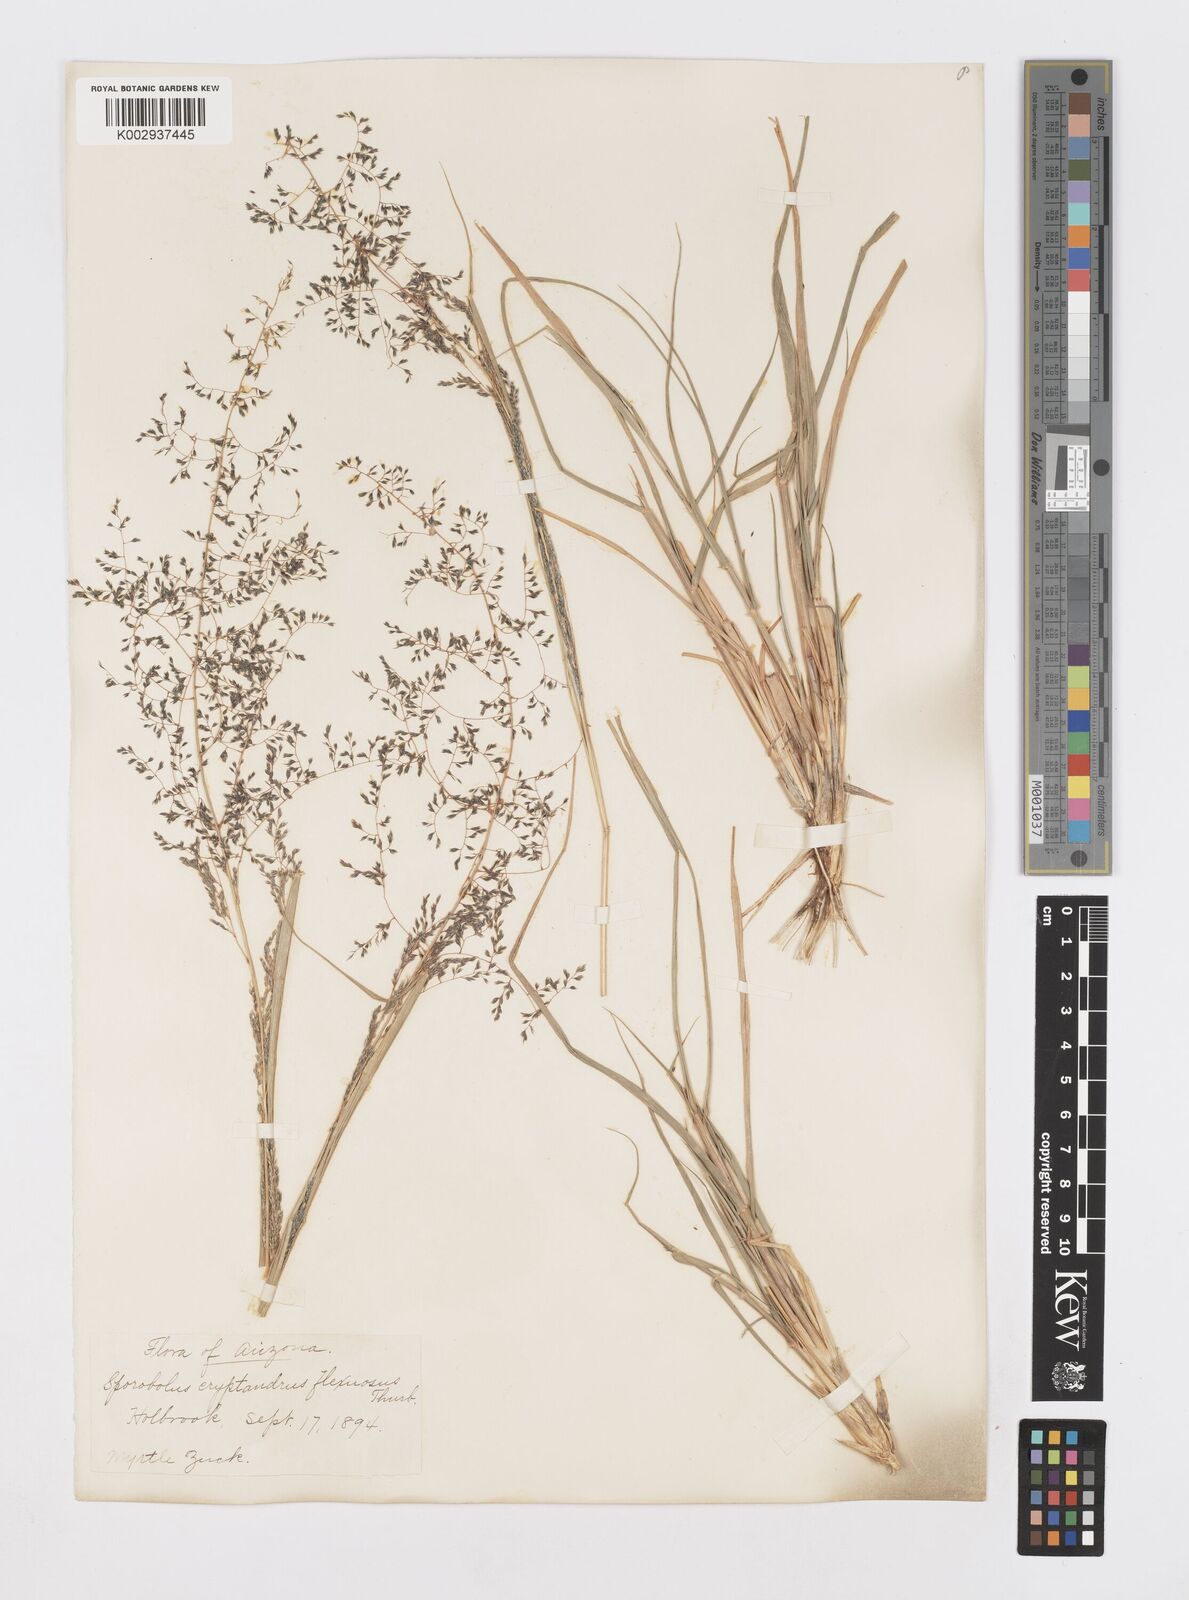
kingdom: Plantae
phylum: Tracheophyta
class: Liliopsida
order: Poales
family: Poaceae
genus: Sporobolus
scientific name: Sporobolus flexuosus
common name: Mesa dropseed
